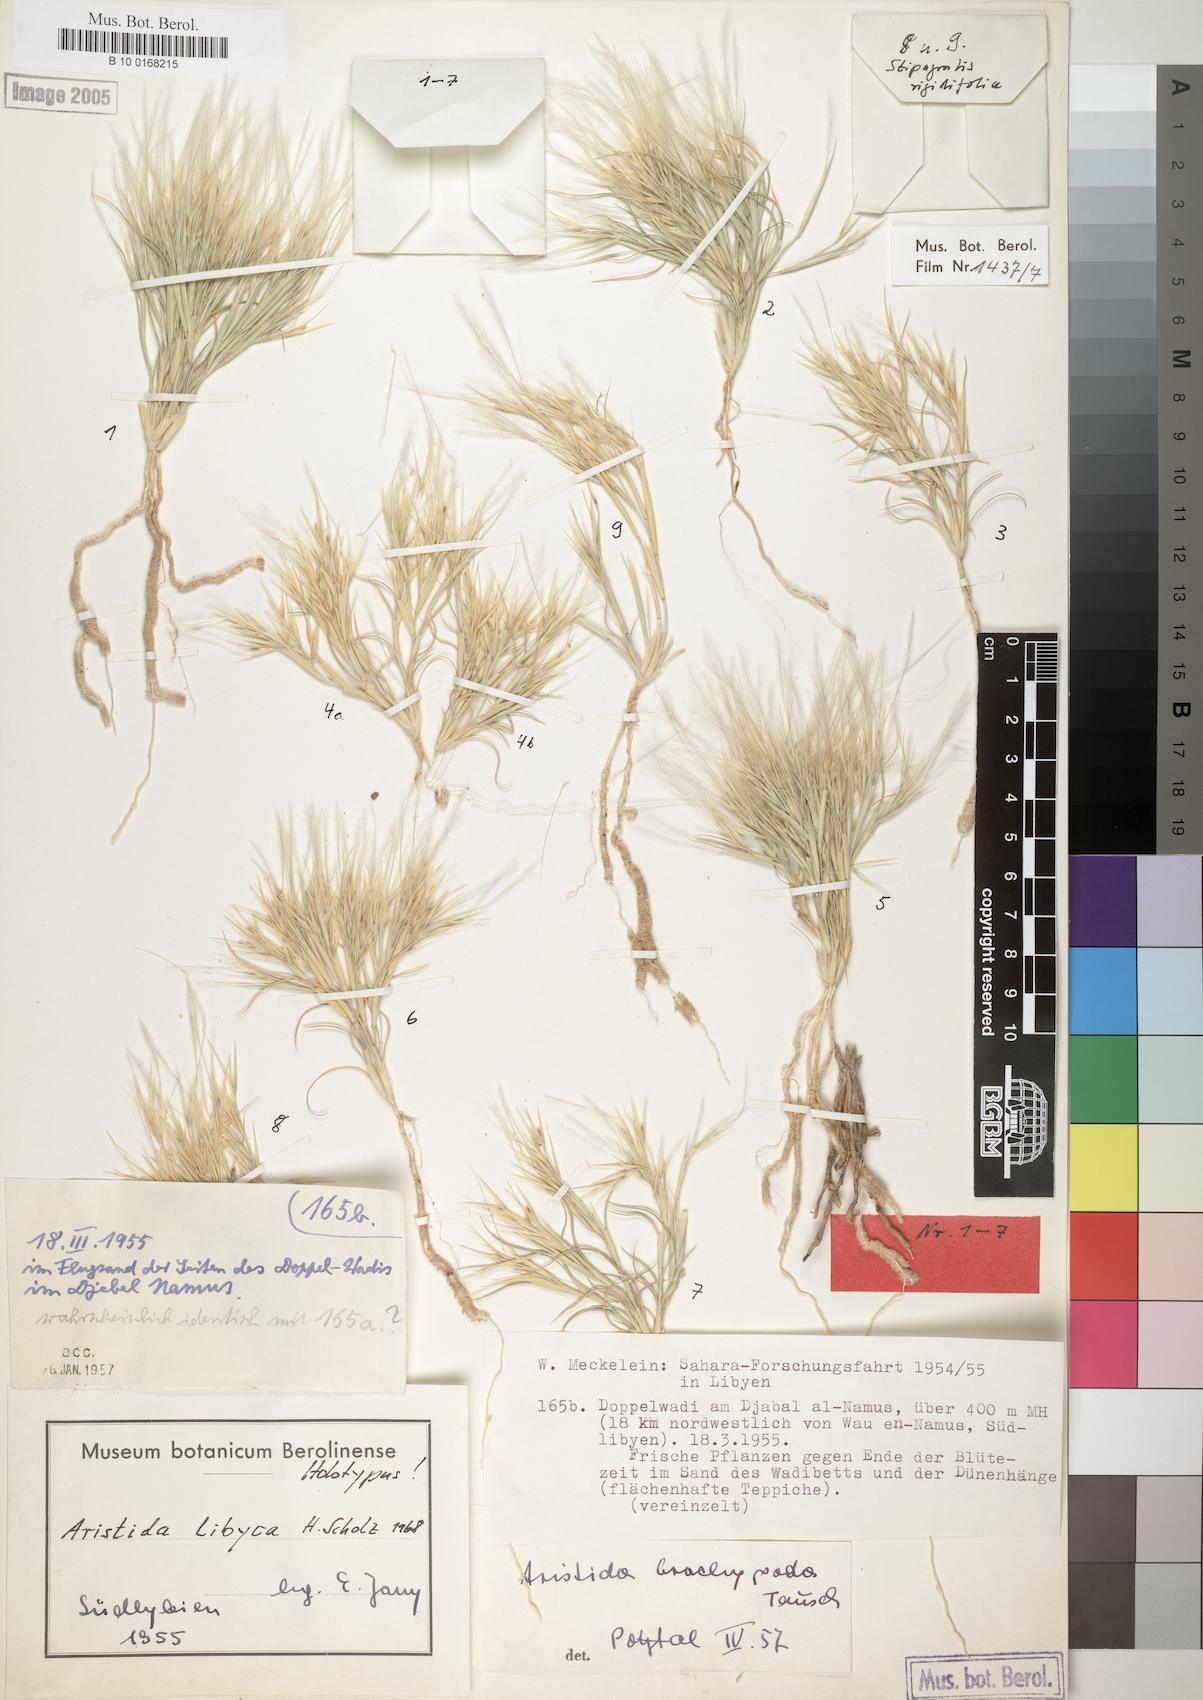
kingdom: Plantae
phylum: Tracheophyta
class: Liliopsida
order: Poales
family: Poaceae
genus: Stipagrostis
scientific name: Stipagrostis libyca
